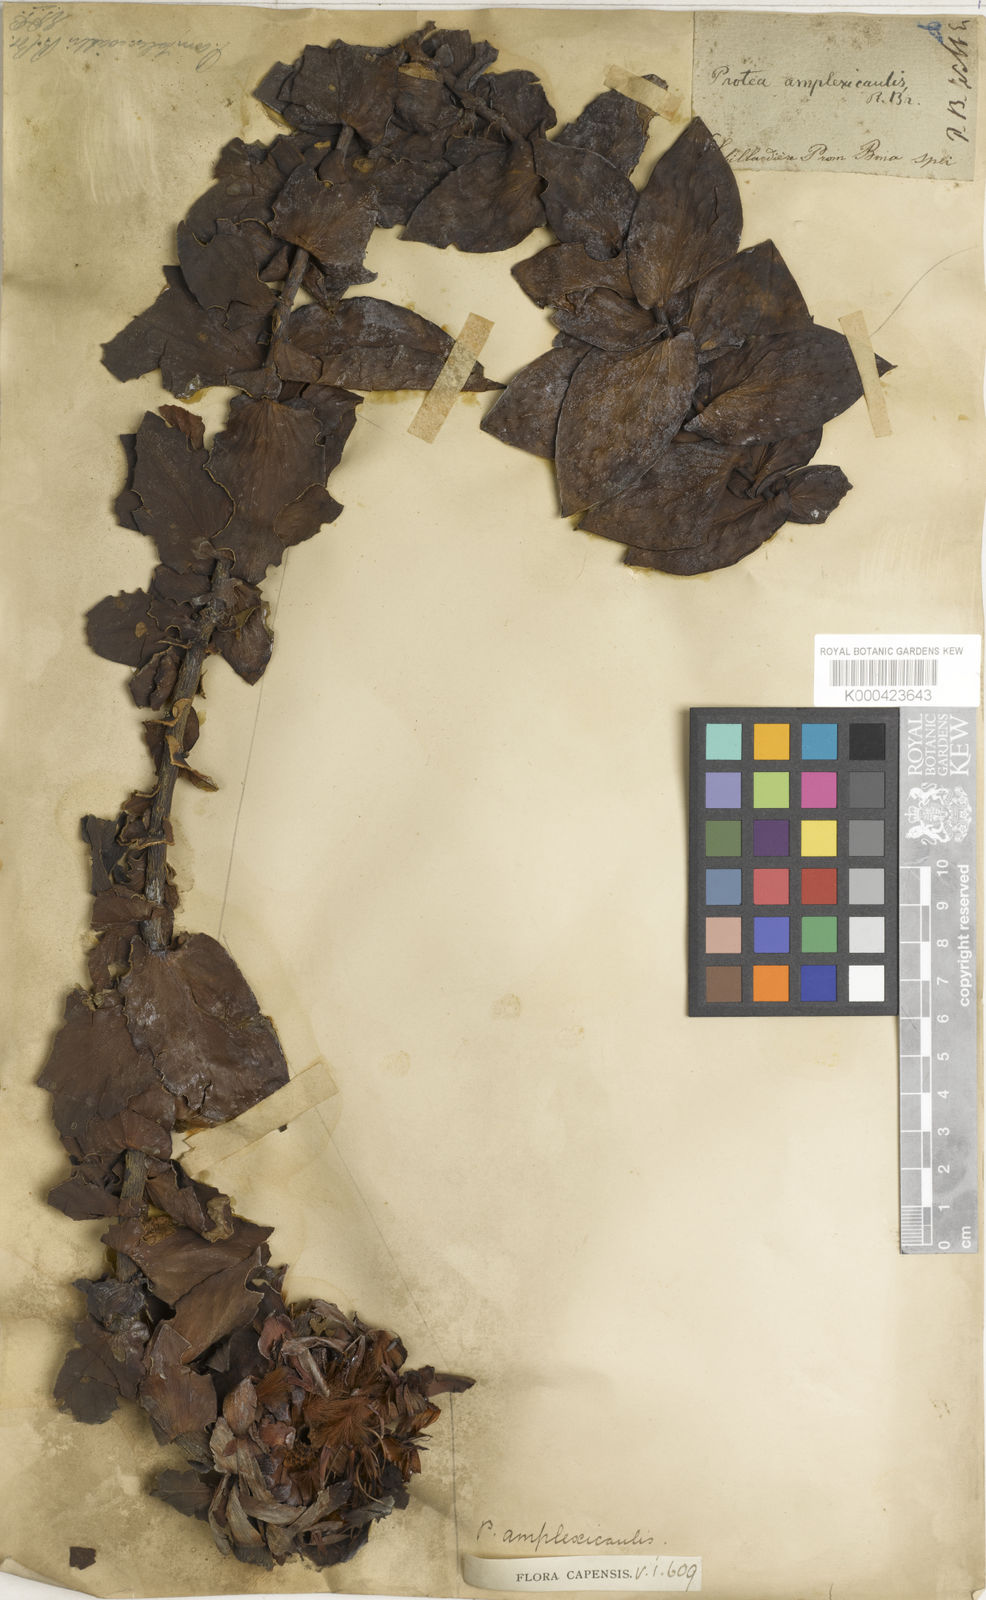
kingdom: Plantae
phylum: Tracheophyta
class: Magnoliopsida
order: Proteales
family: Proteaceae
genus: Protea
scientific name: Protea amplexicaulis
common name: Clasping-leaf sugarbush
